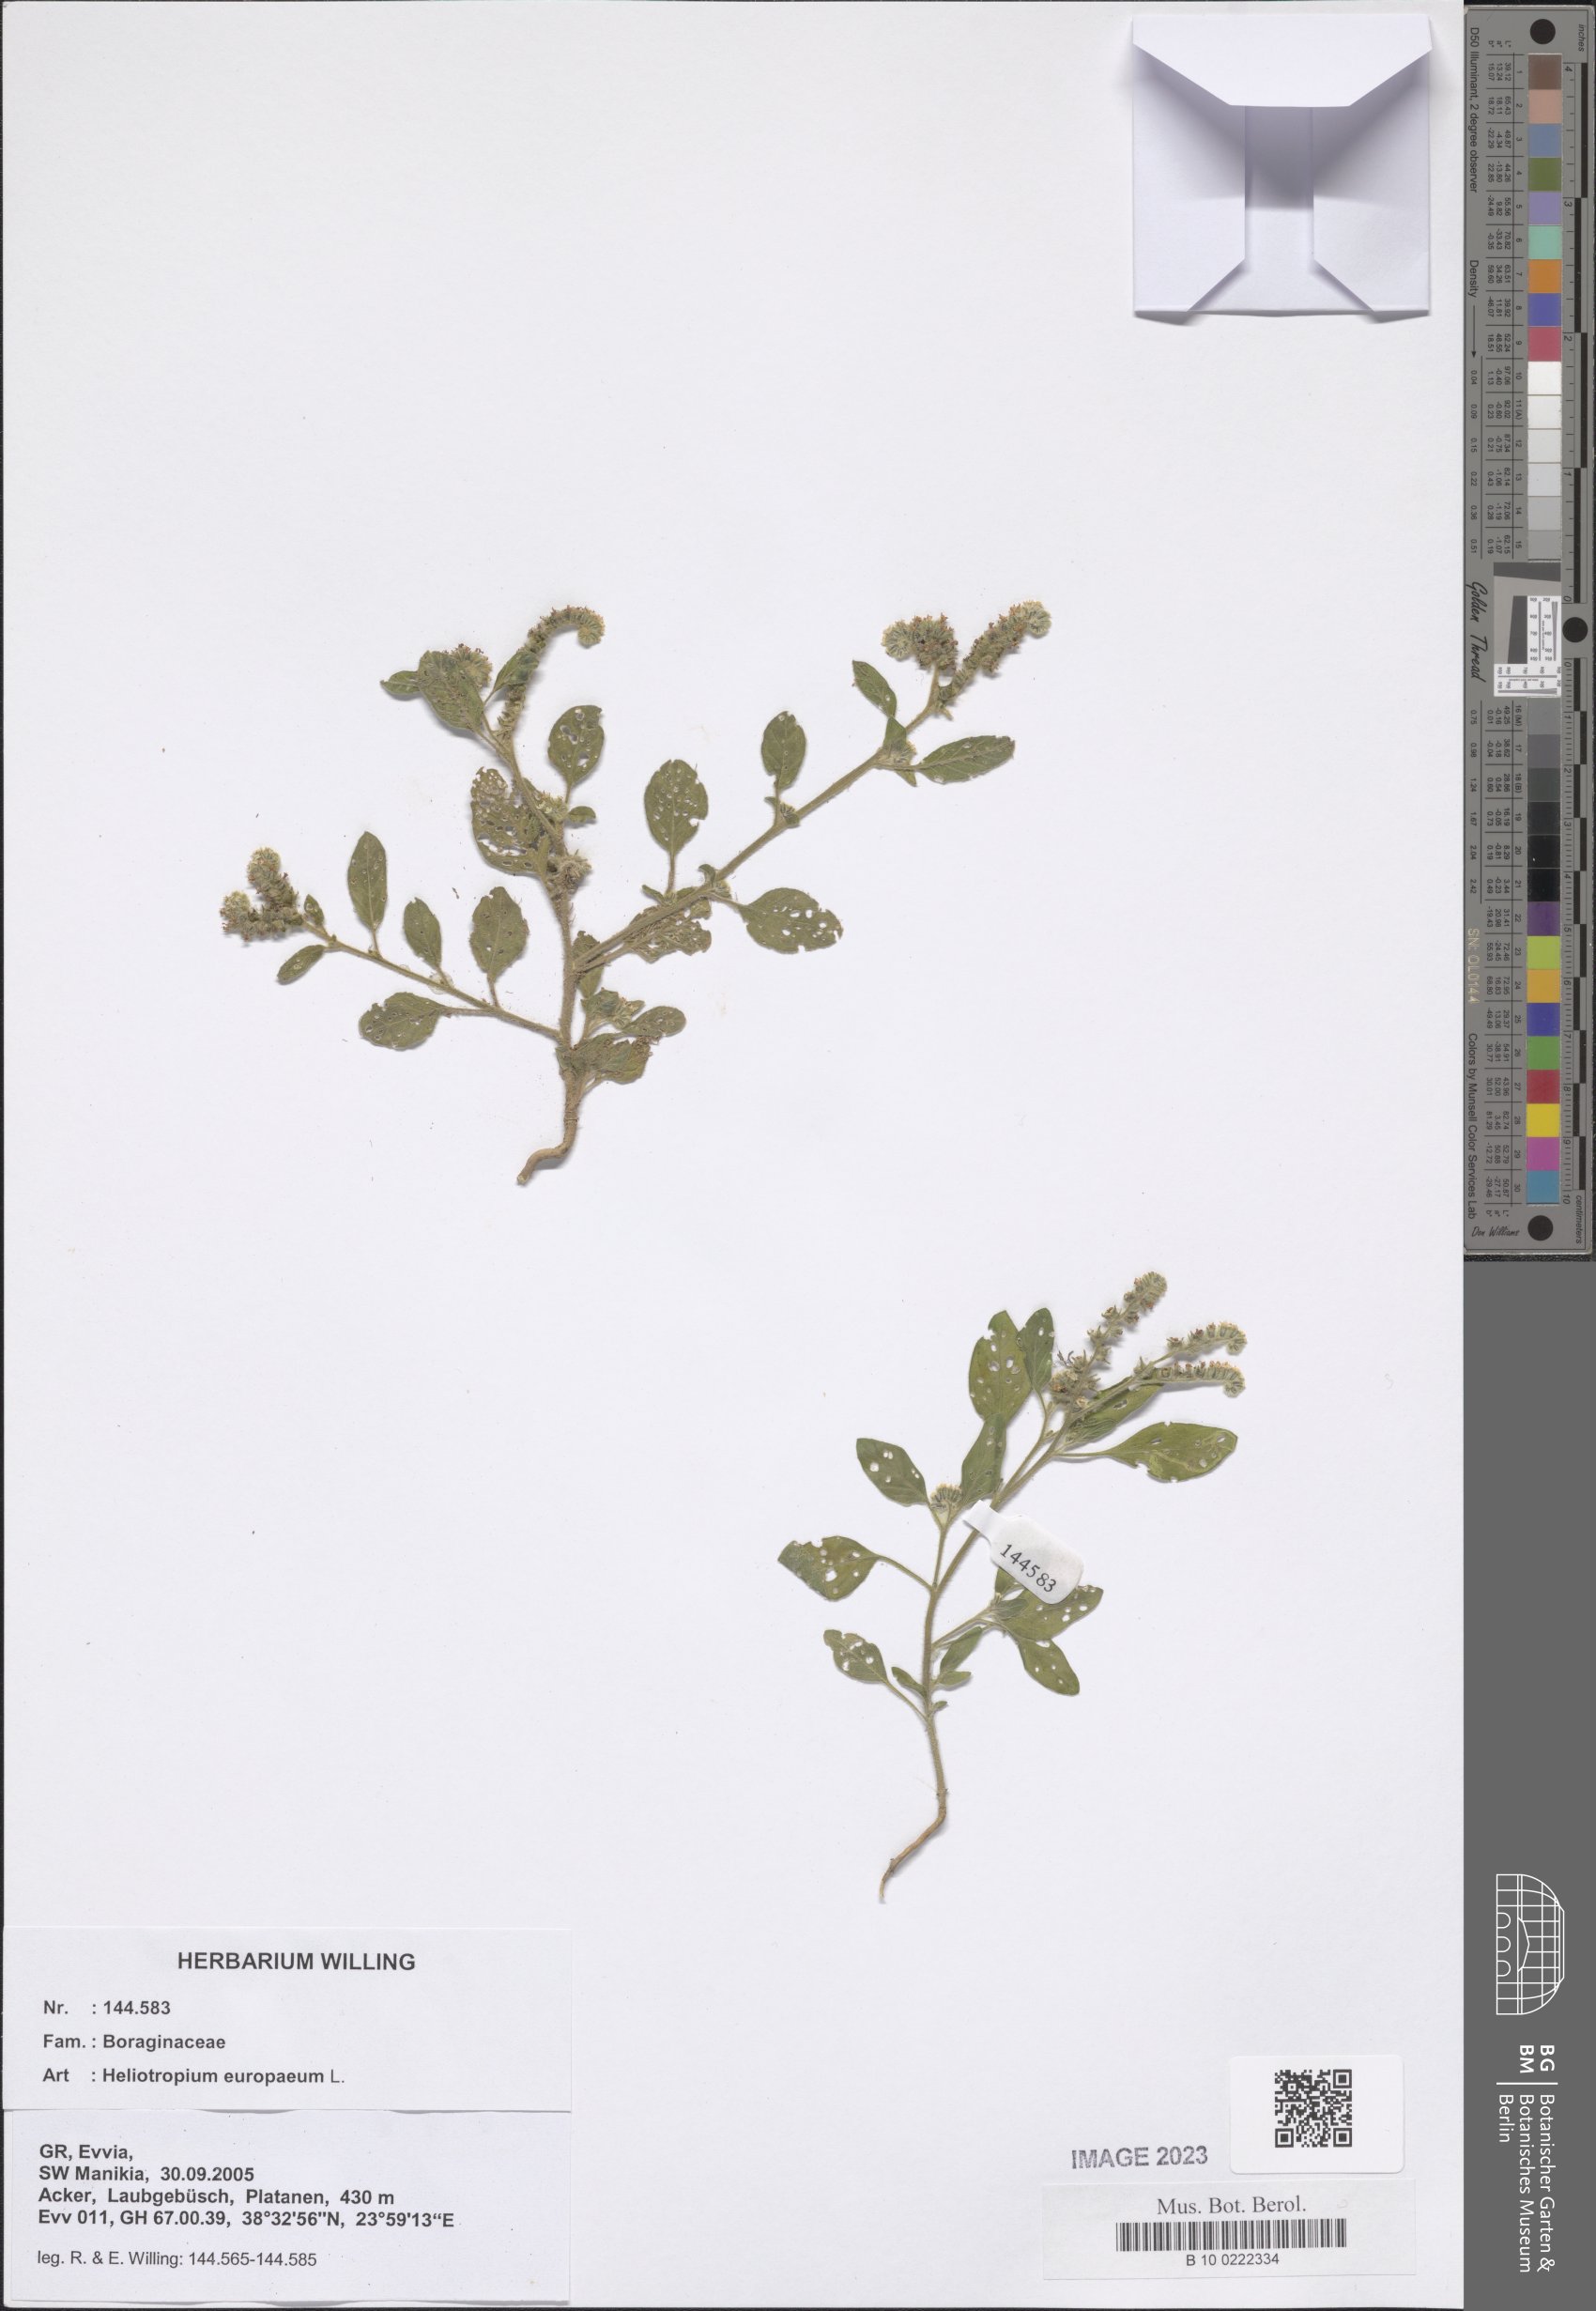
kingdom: Plantae
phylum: Tracheophyta
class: Magnoliopsida
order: Boraginales
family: Heliotropiaceae
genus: Heliotropium
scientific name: Heliotropium europaeum
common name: European heliotrope
